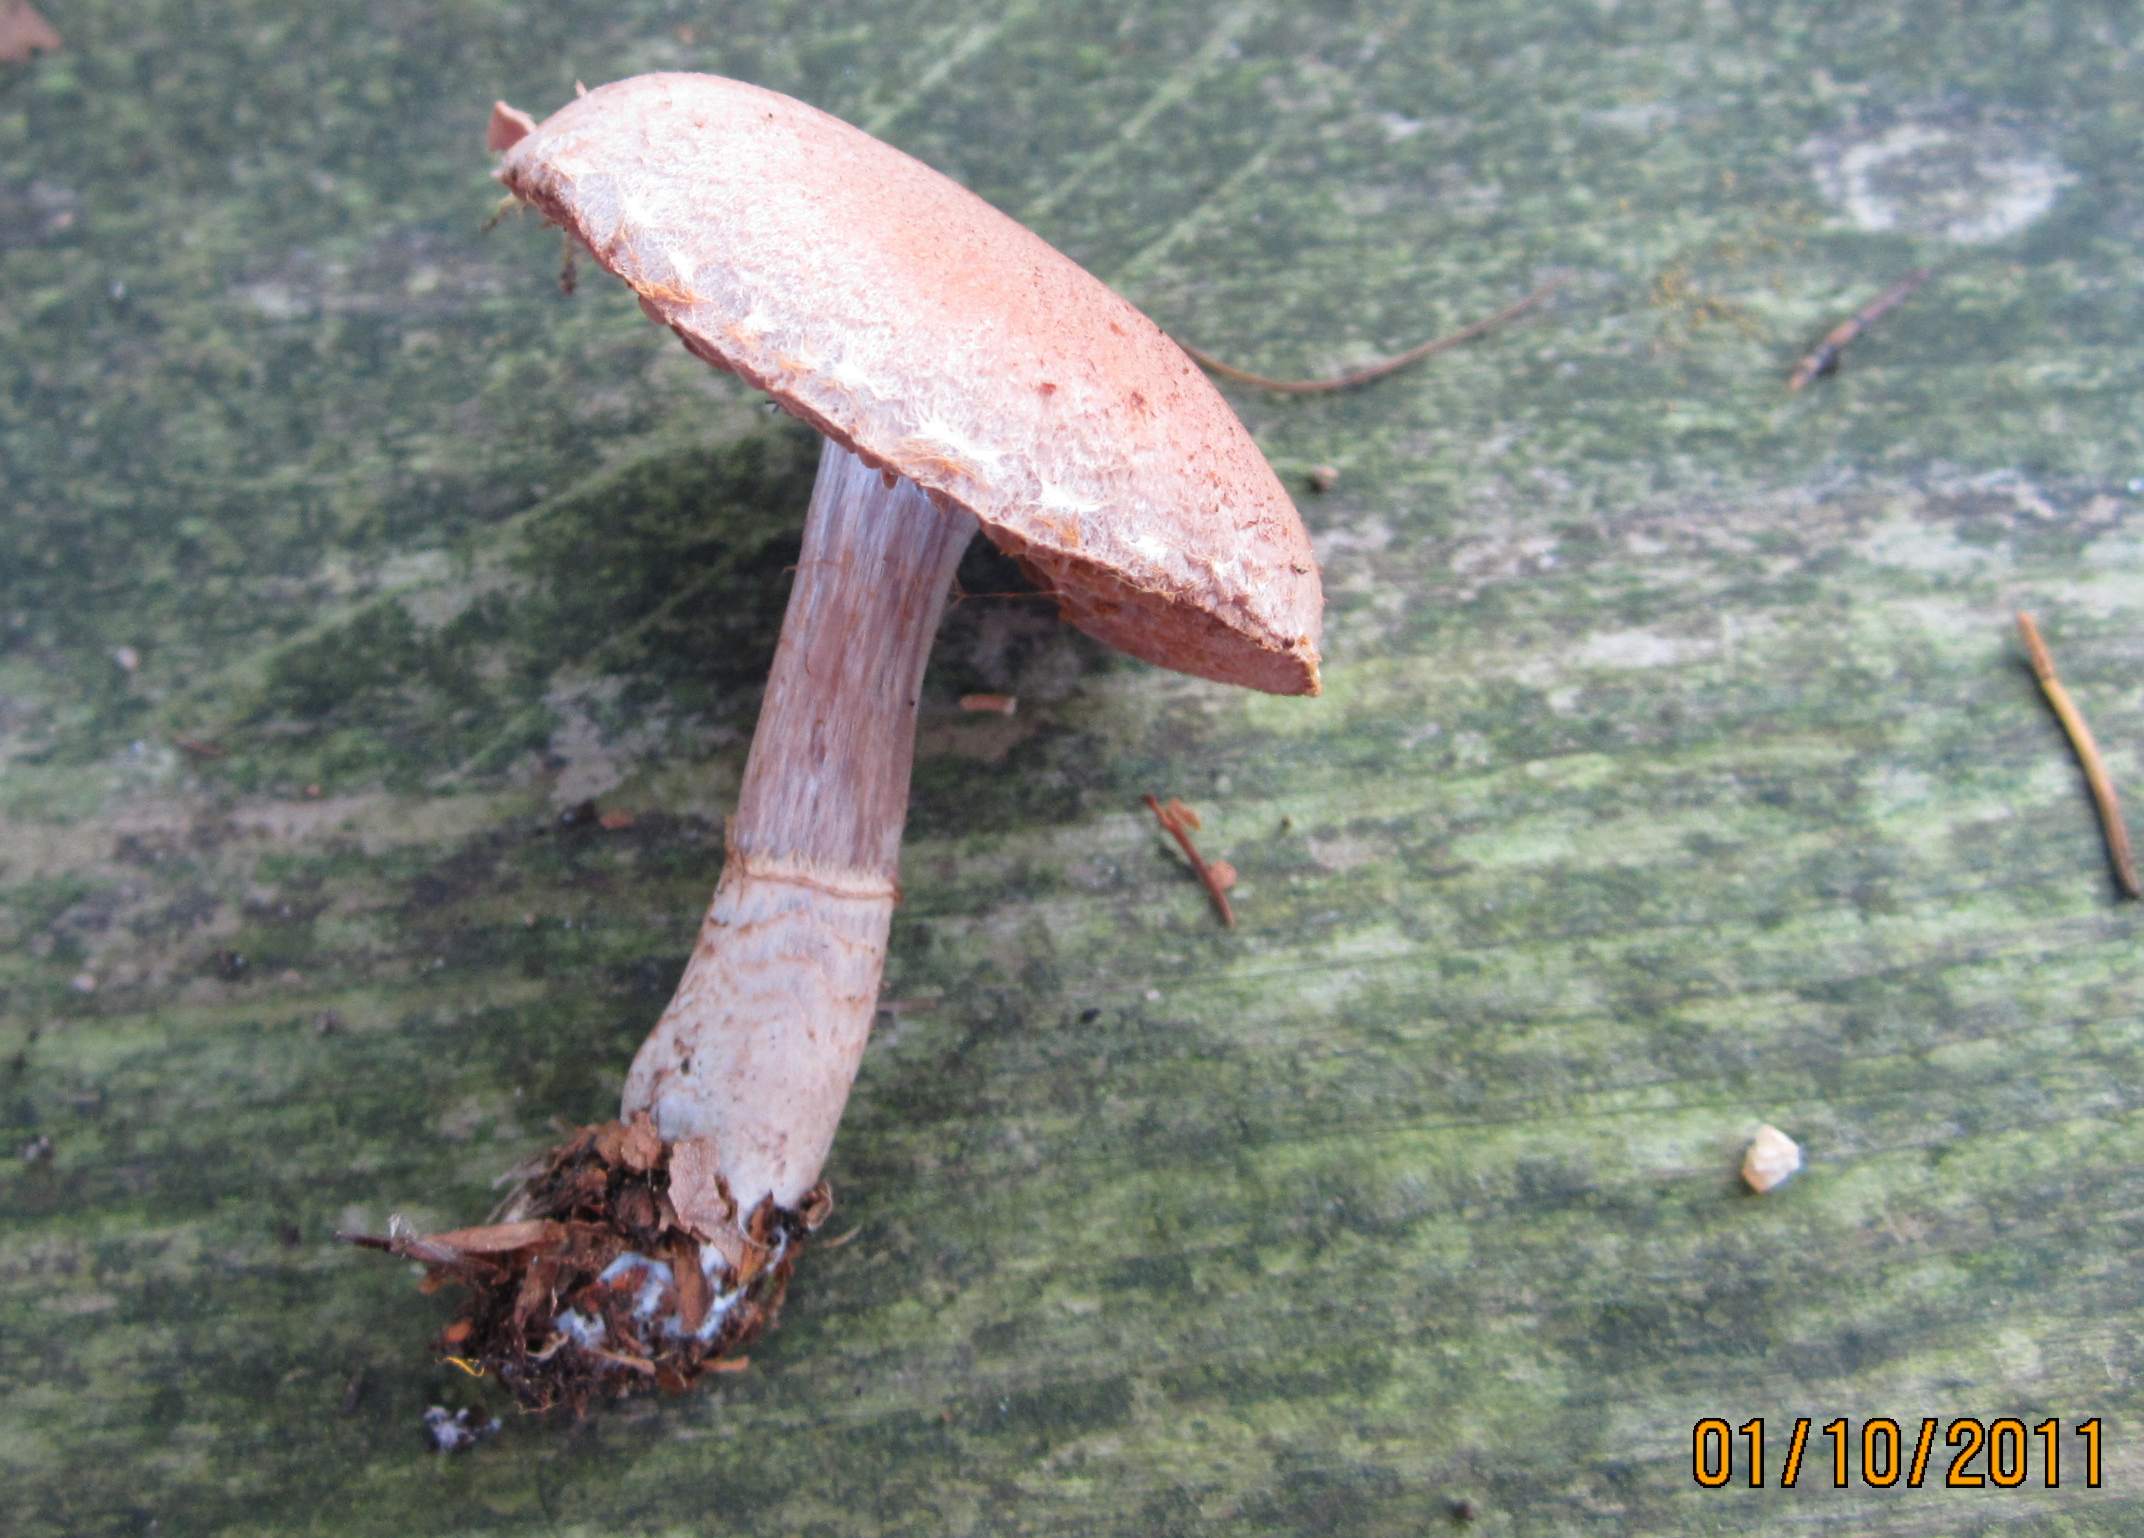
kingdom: Fungi
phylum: Basidiomycota
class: Agaricomycetes
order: Agaricales
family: Cortinariaceae
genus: Cortinarius
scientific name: Cortinarius torvus
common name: champignonagtig slørhat
